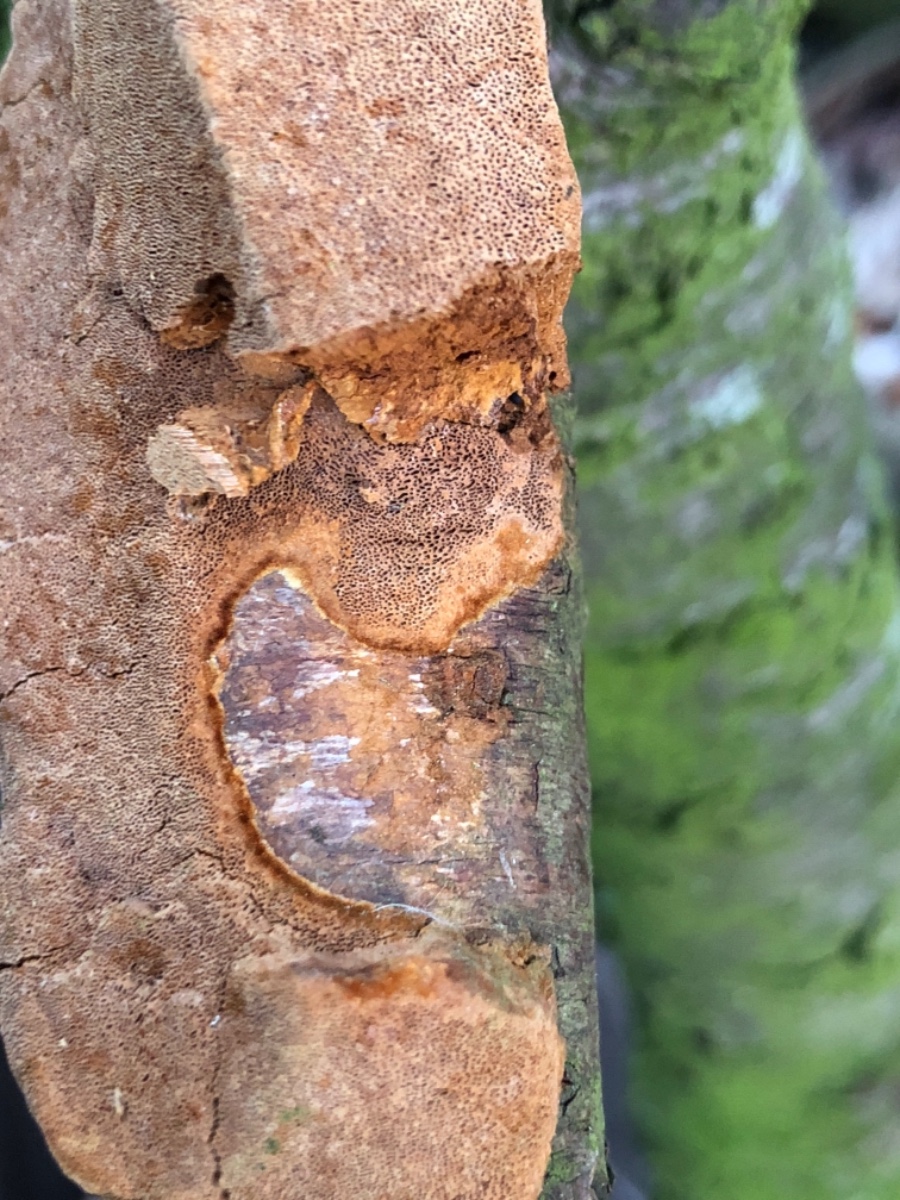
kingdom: Fungi
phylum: Basidiomycota
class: Agaricomycetes
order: Hymenochaetales
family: Hymenochaetaceae
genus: Phellinus
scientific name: Phellinus pomaceus
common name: blomme-ildporesvamp
